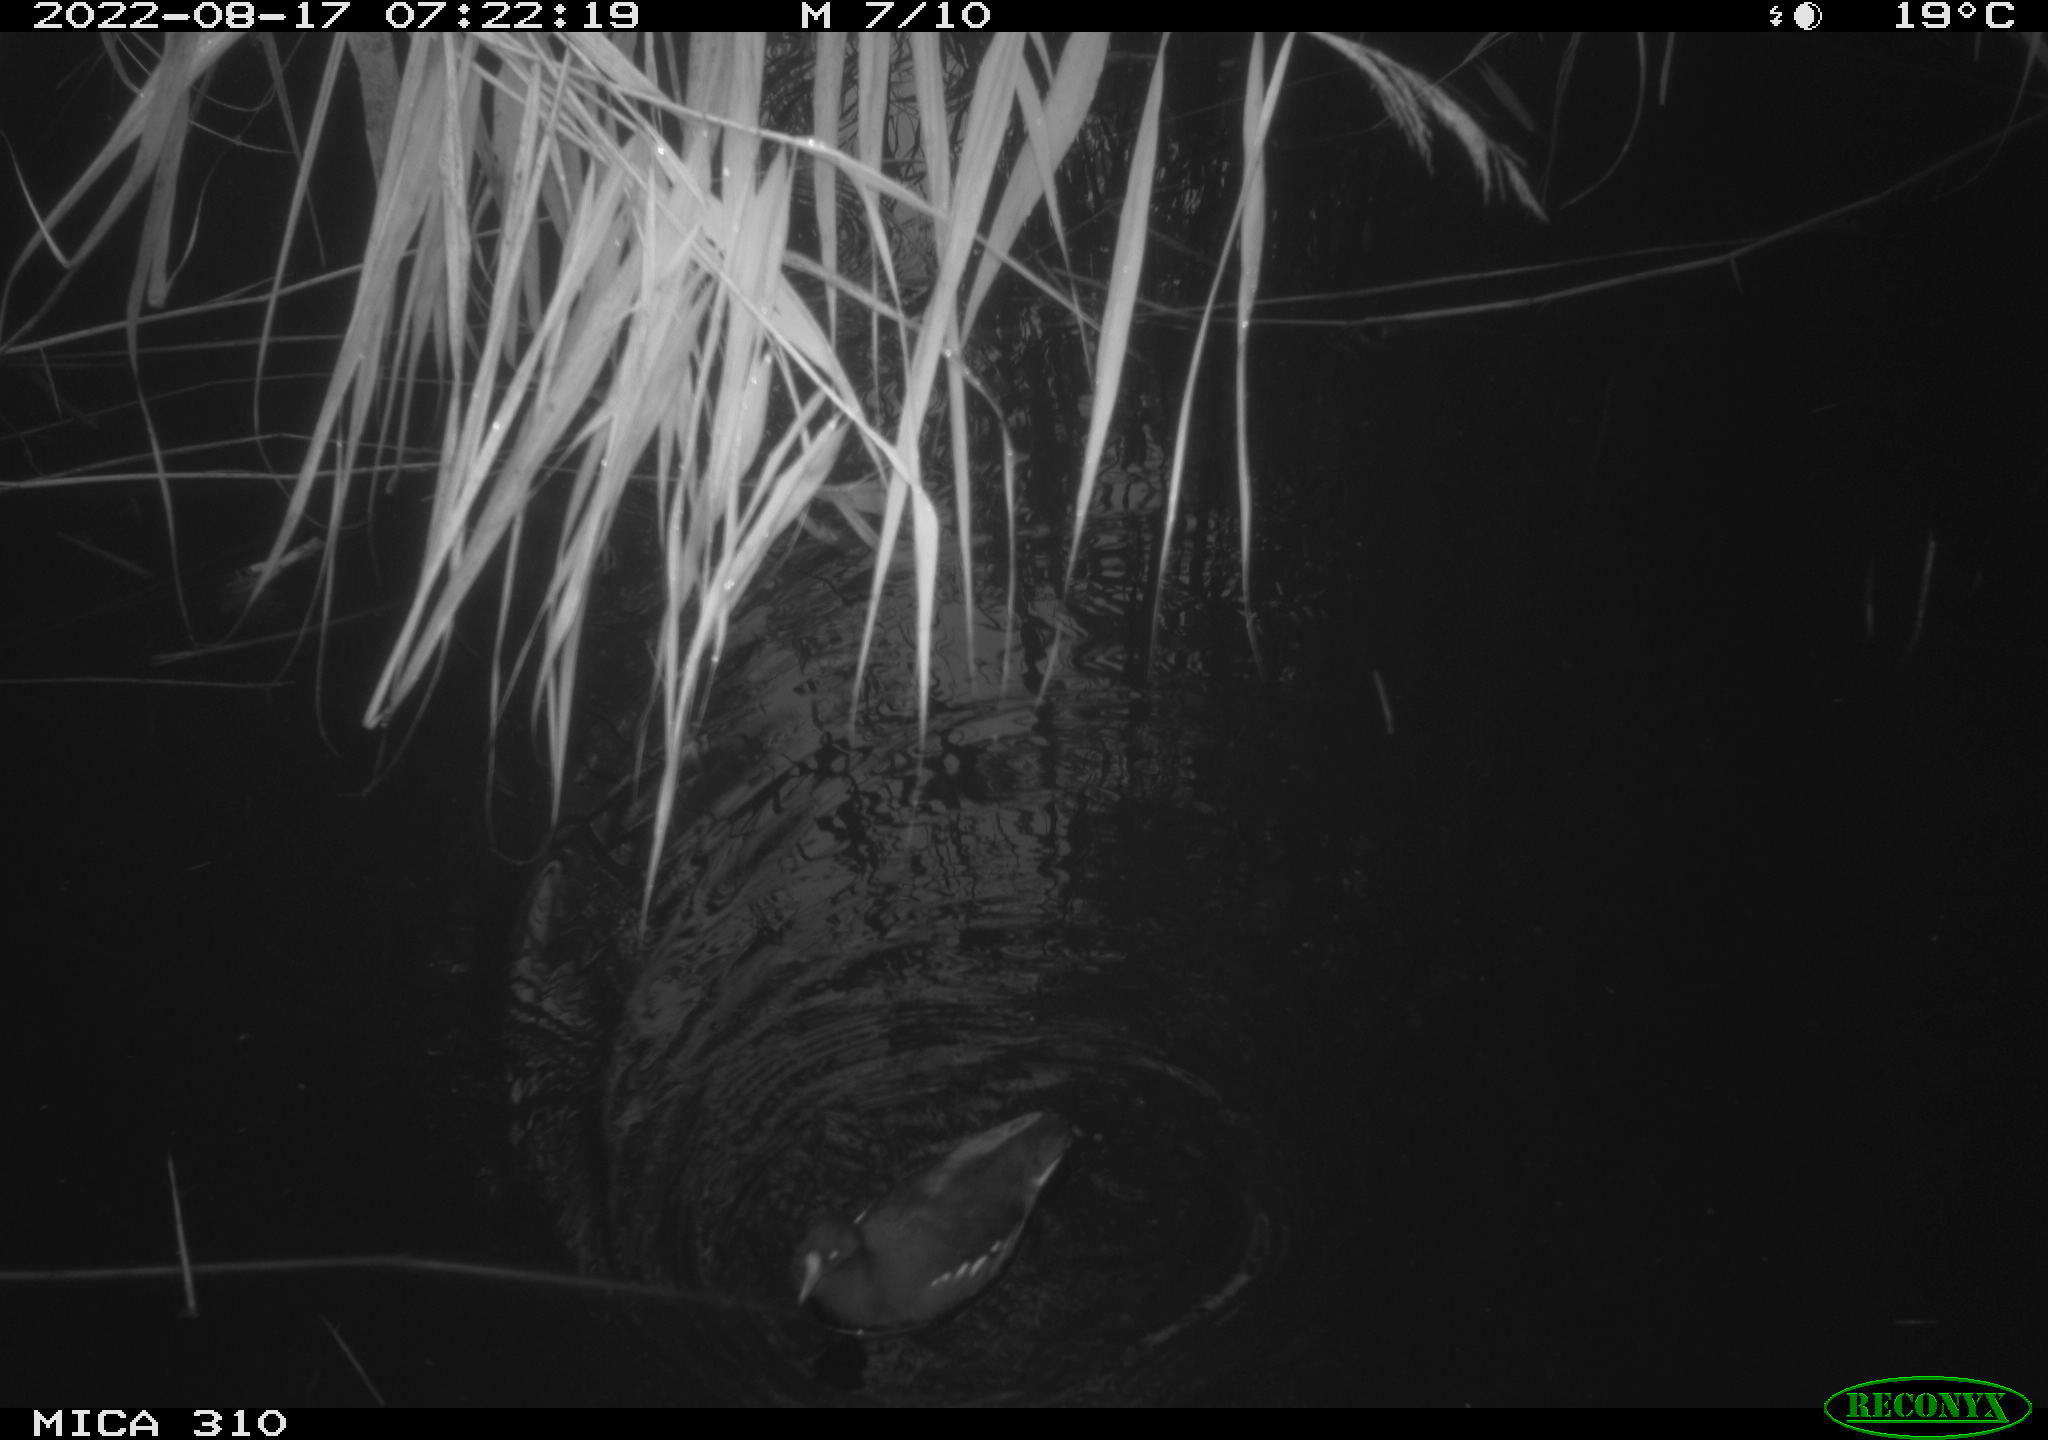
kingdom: Animalia
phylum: Chordata
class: Aves
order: Gruiformes
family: Rallidae
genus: Gallinula
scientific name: Gallinula chloropus
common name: Common moorhen
